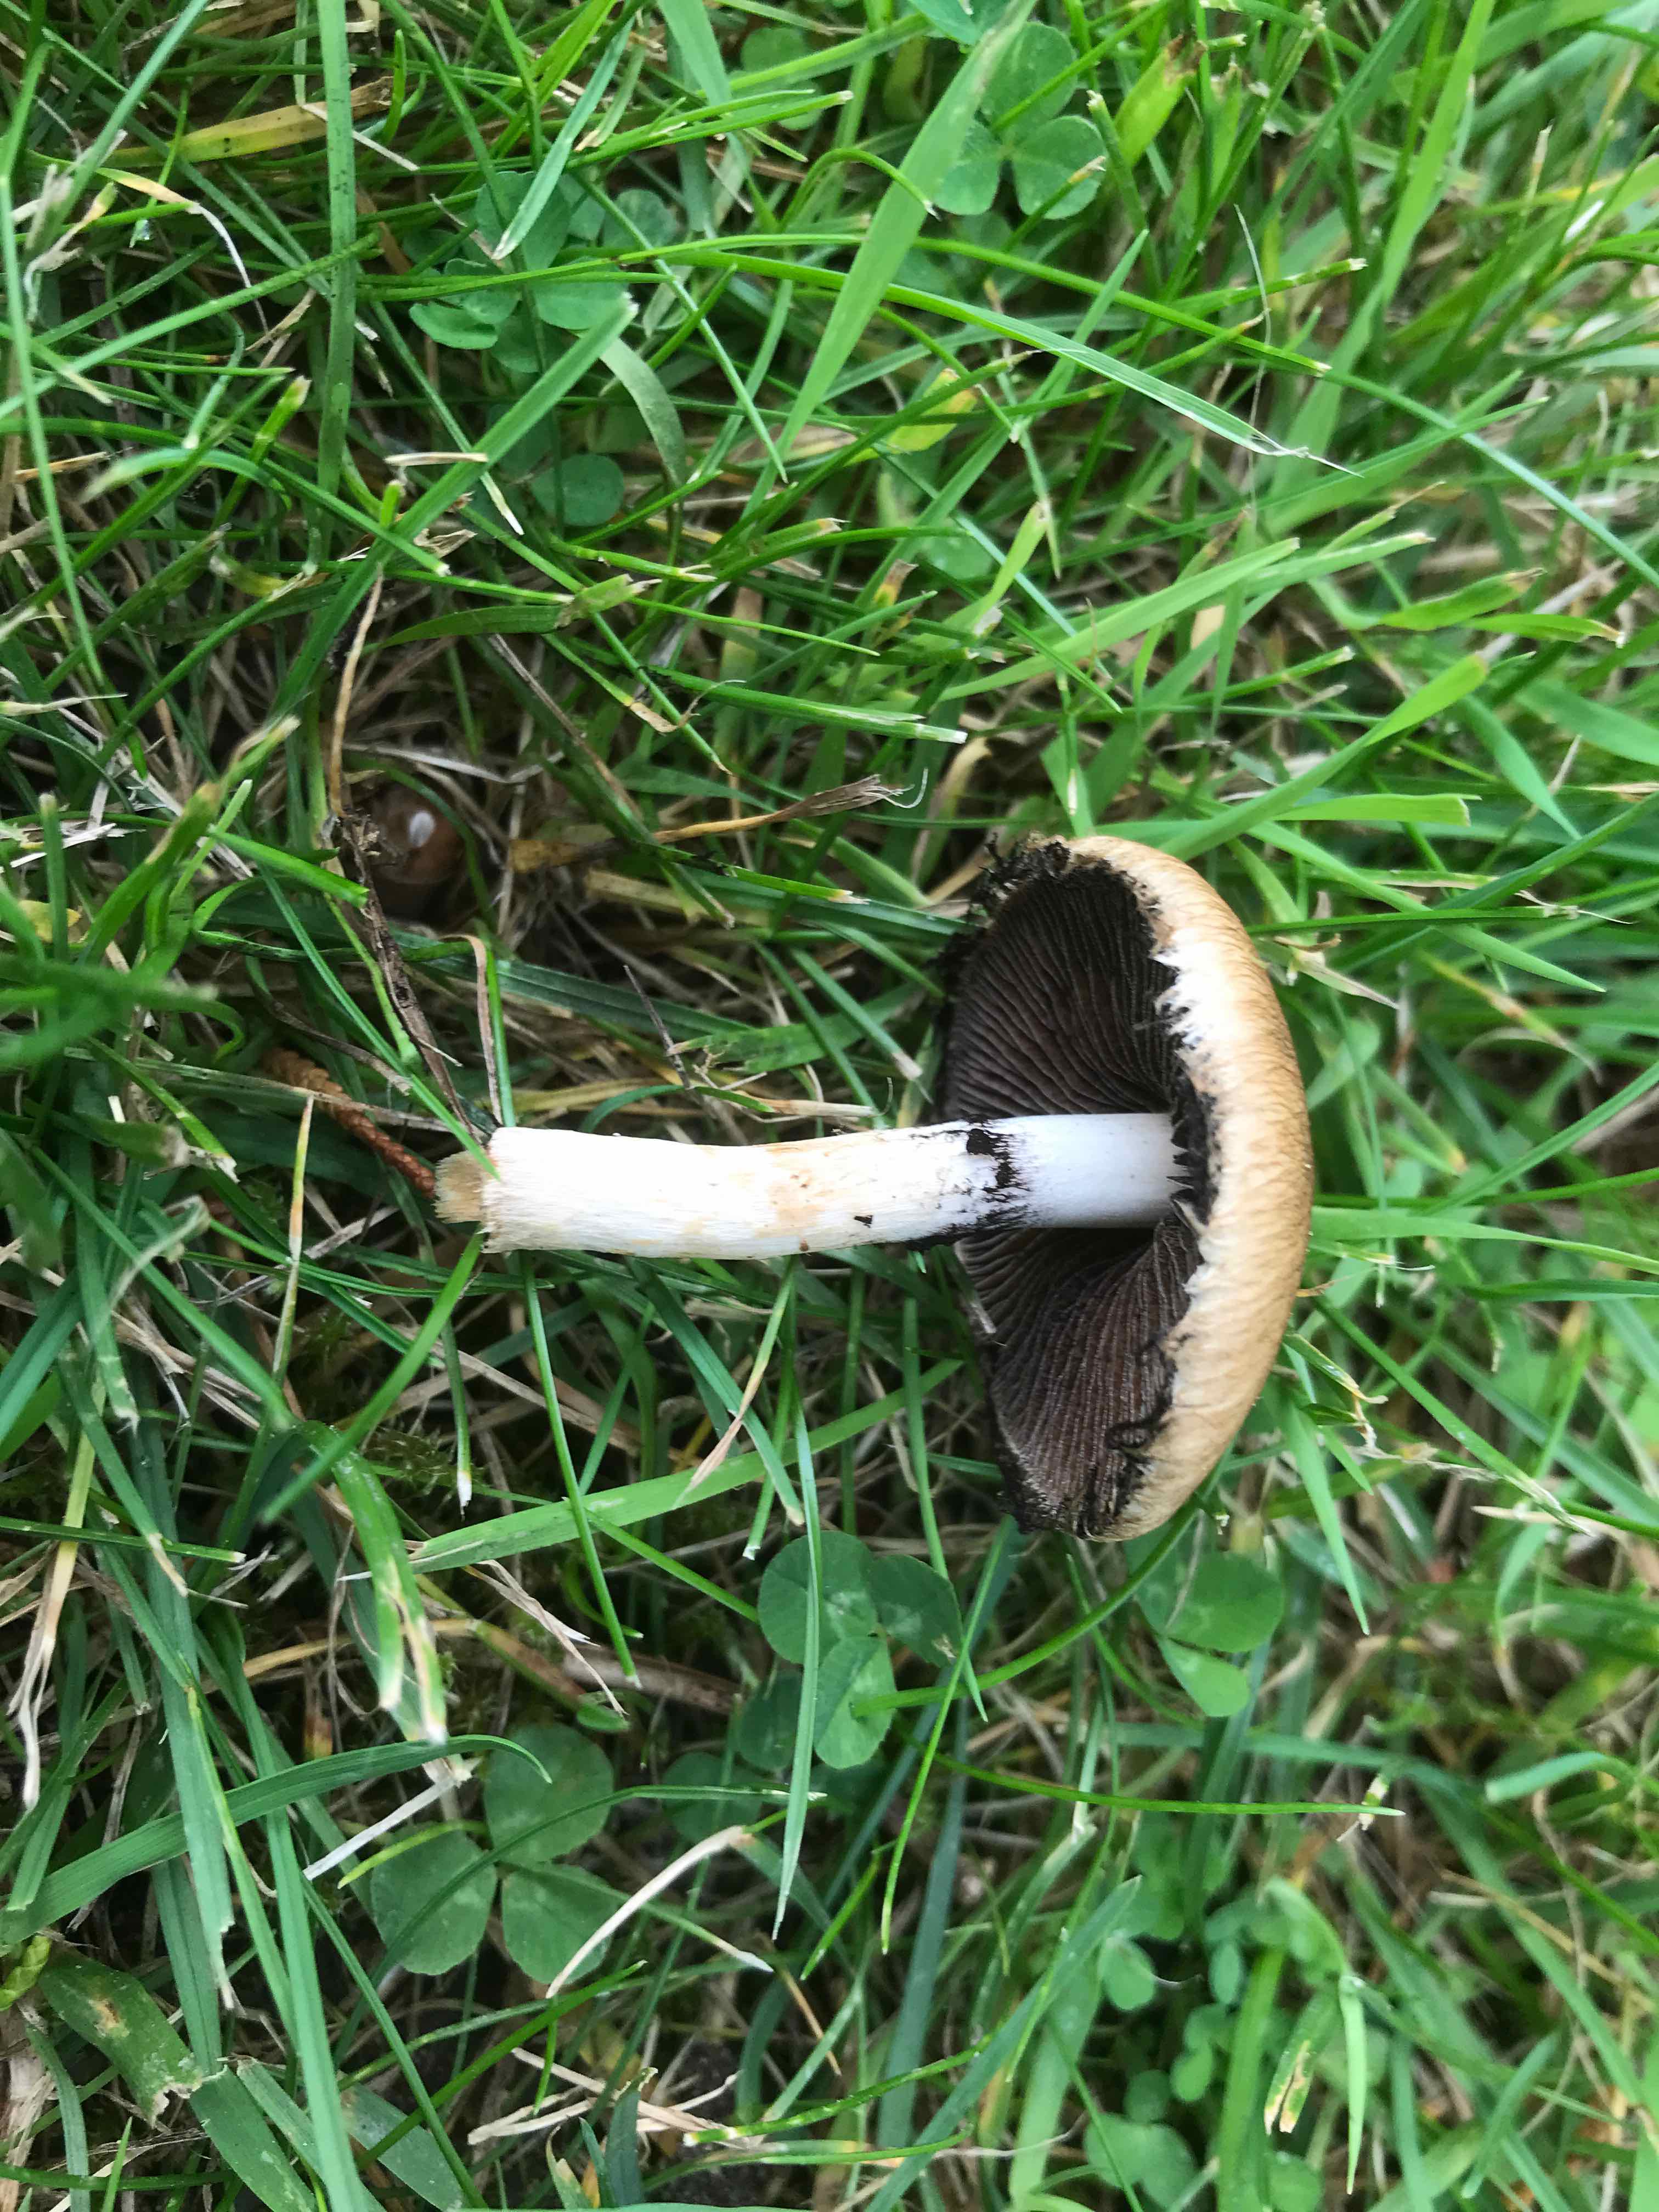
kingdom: Fungi
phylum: Basidiomycota
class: Agaricomycetes
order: Agaricales
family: Psathyrellaceae
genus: Lacrymaria
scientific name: Lacrymaria lacrymabunda
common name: grædende mørkhat
